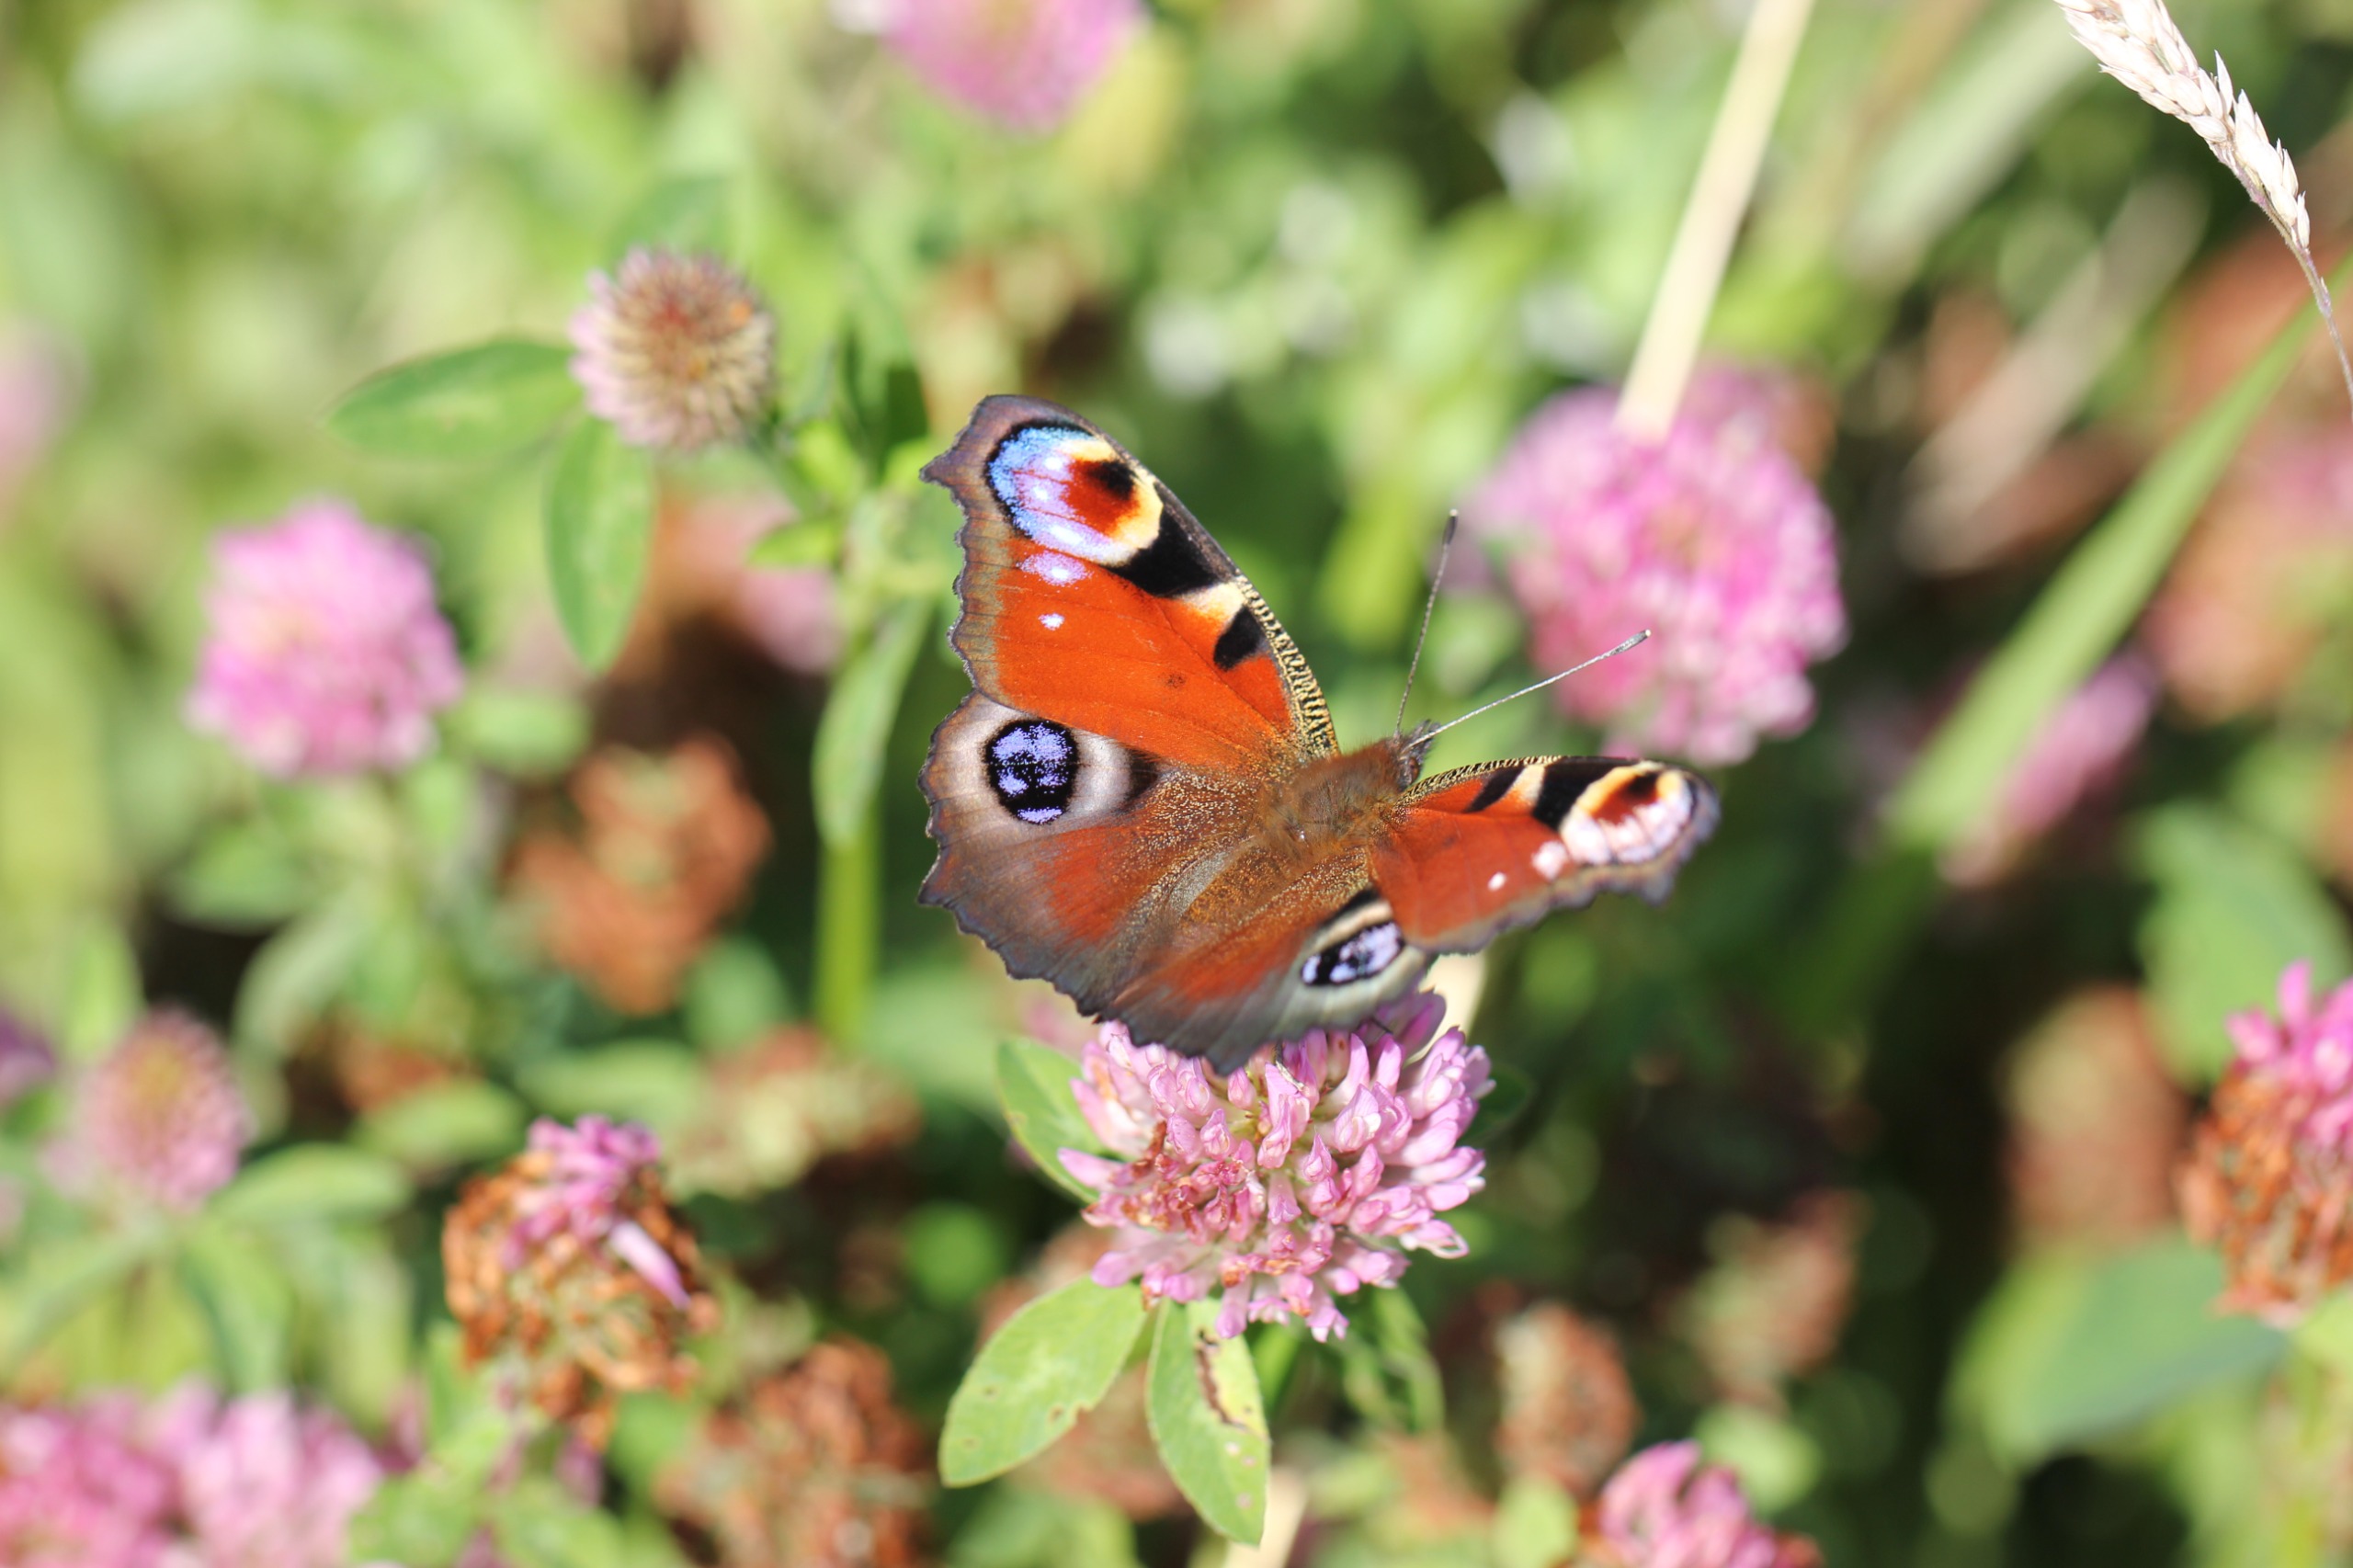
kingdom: Animalia
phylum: Arthropoda
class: Insecta
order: Lepidoptera
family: Nymphalidae
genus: Aglais
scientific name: Aglais io
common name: Dagpåfugleøje
